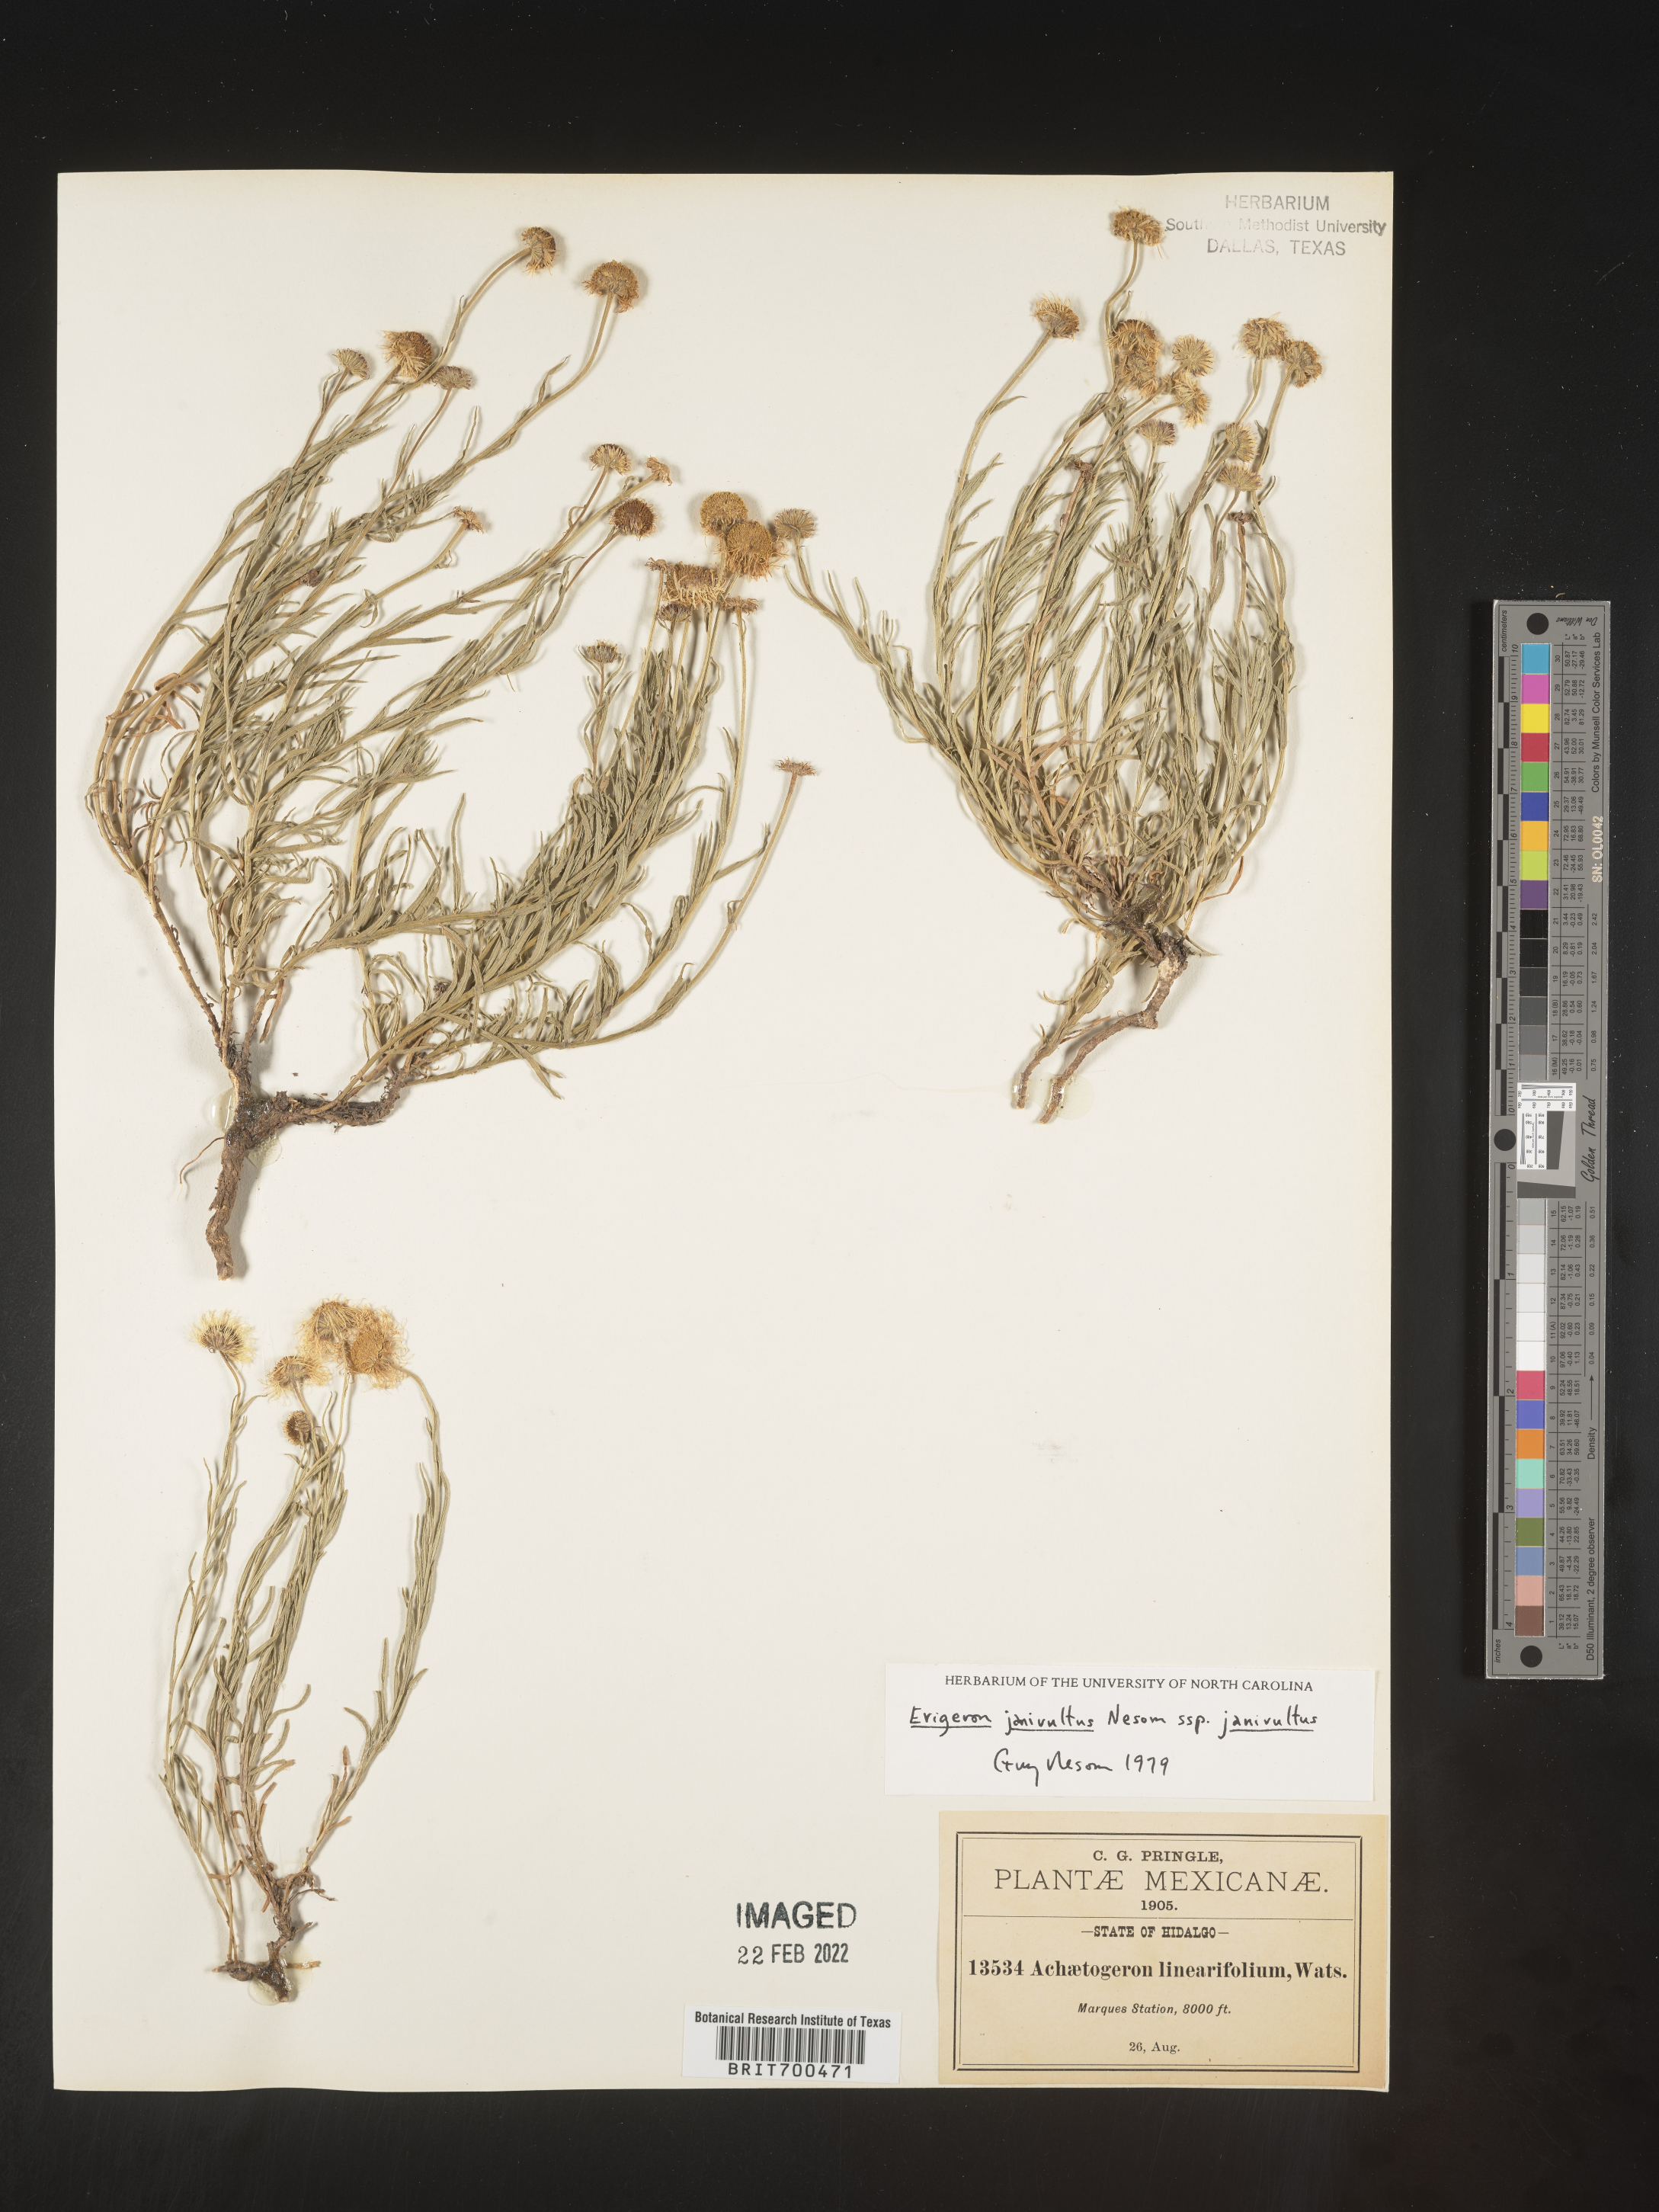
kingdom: Plantae
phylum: Tracheophyta
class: Magnoliopsida
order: Asterales
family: Asteraceae
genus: Erigeron
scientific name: Erigeron
